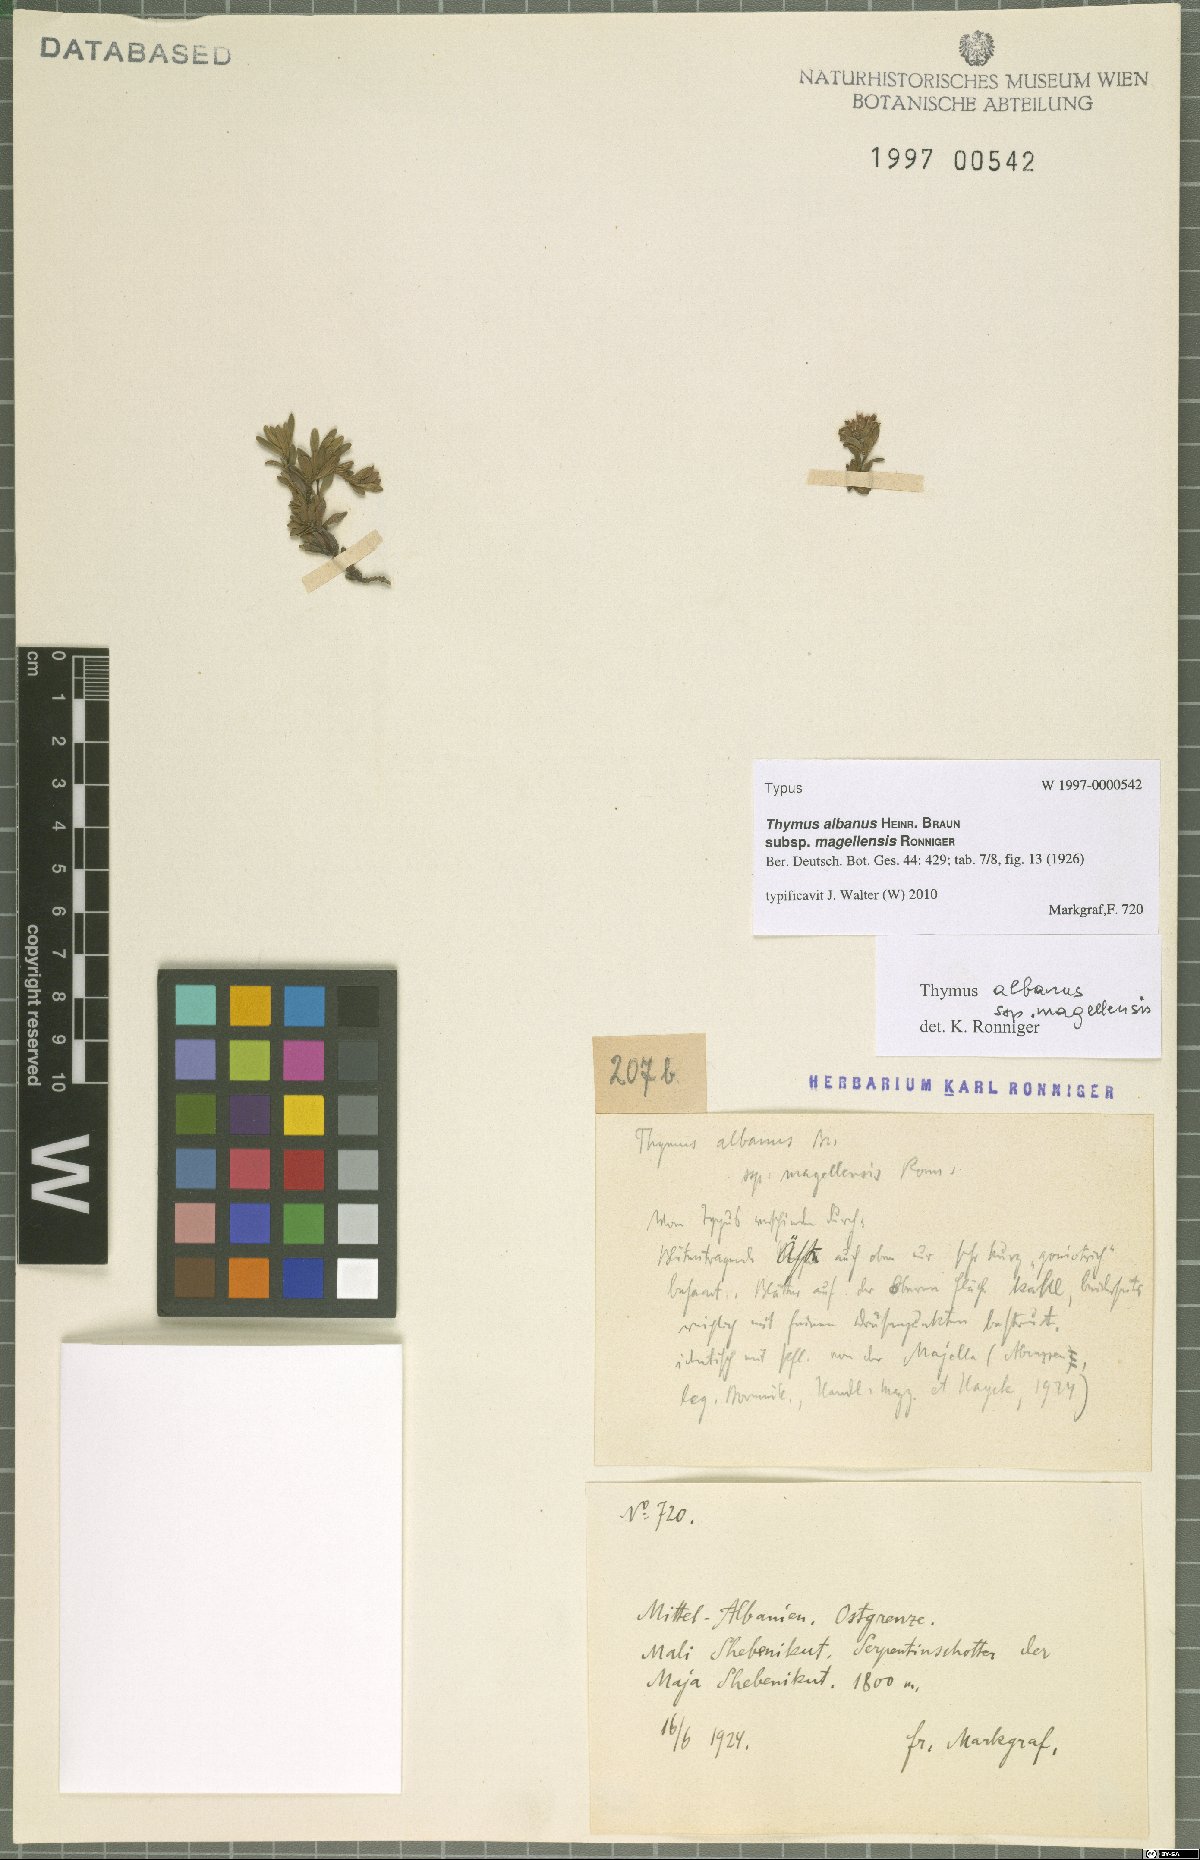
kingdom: Plantae
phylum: Tracheophyta
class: Magnoliopsida
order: Lamiales
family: Lamiaceae
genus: Thymus
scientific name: Thymus zygiformis
